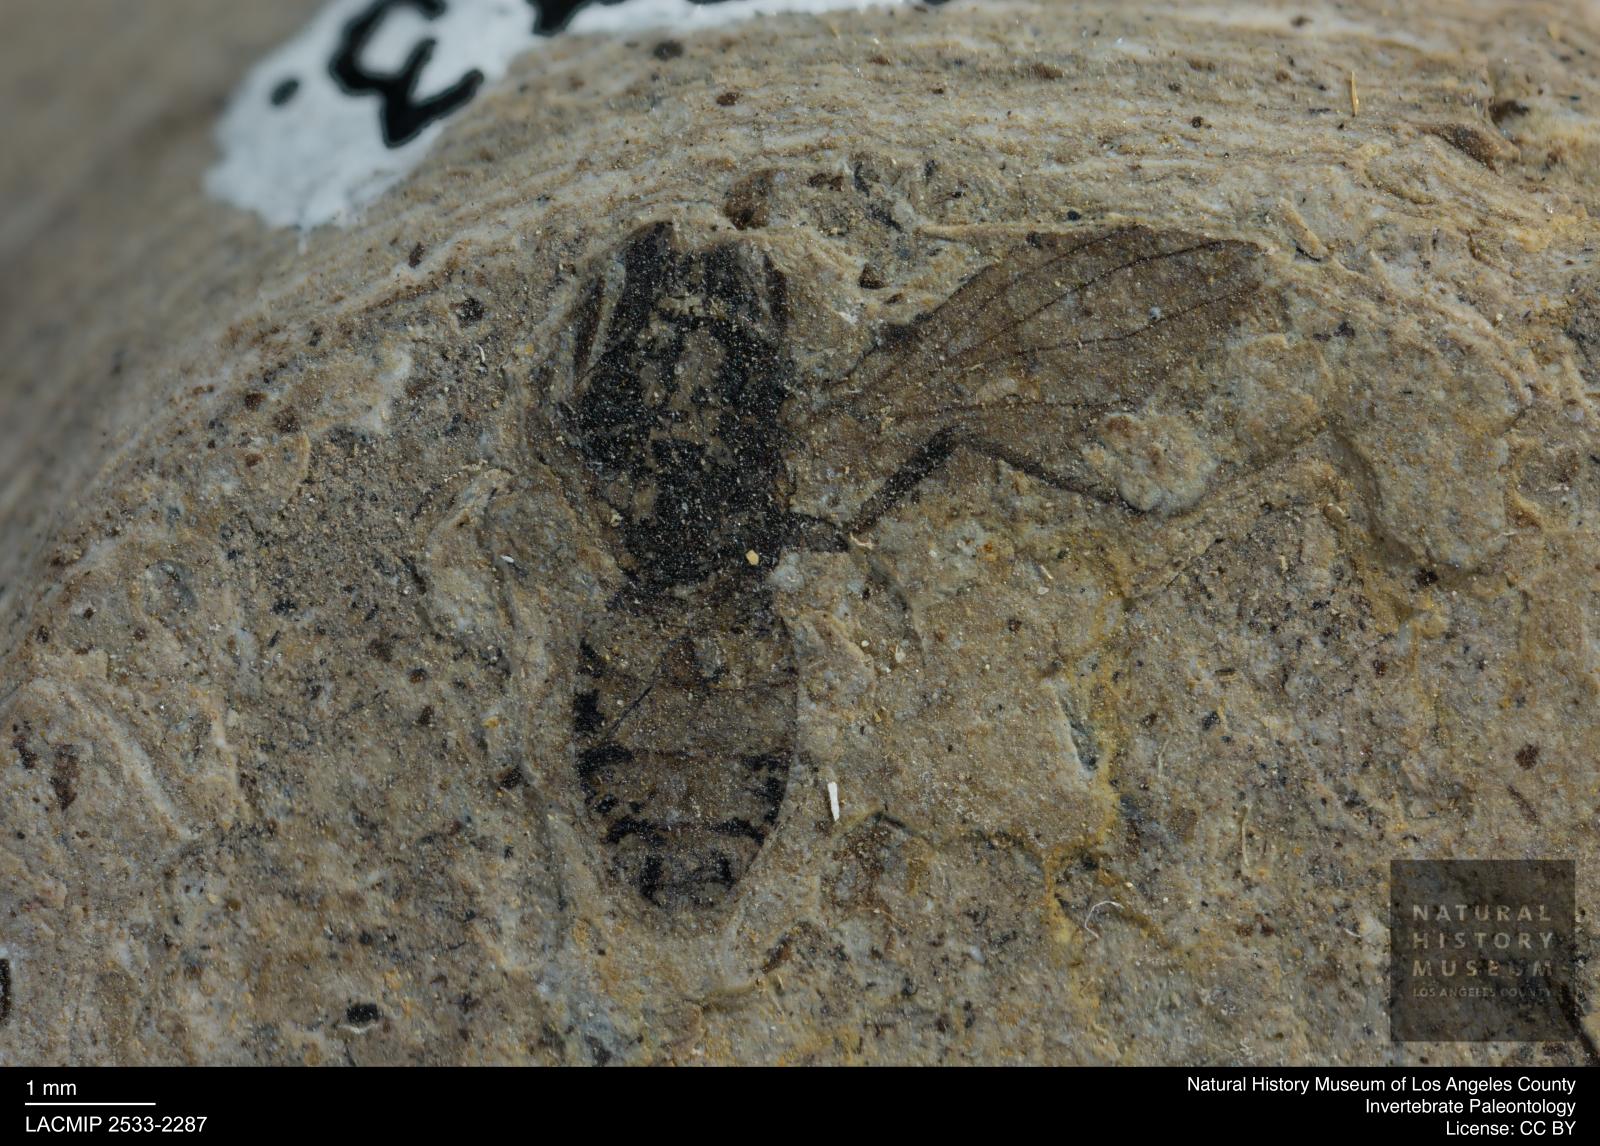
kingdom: Animalia
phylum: Arthropoda
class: Insecta
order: Diptera
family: Heleomyzidae
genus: Heleomyza
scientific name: Heleomyza Leria bauckhorni
